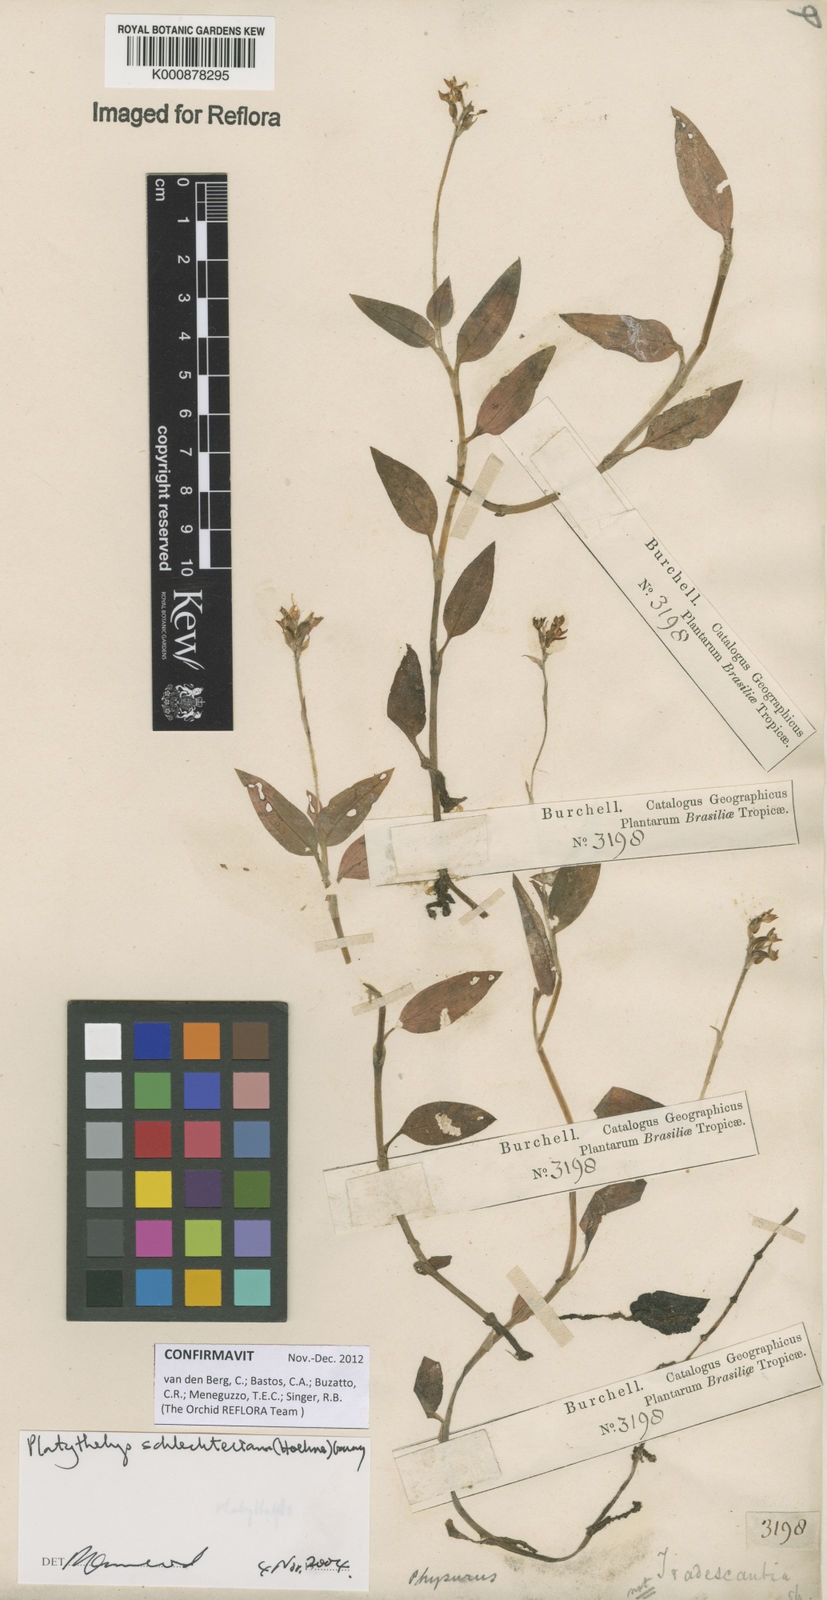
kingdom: Plantae
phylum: Tracheophyta
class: Liliopsida
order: Asparagales
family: Orchidaceae
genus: Aspidogyne
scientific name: Aspidogyne schlechteriana
